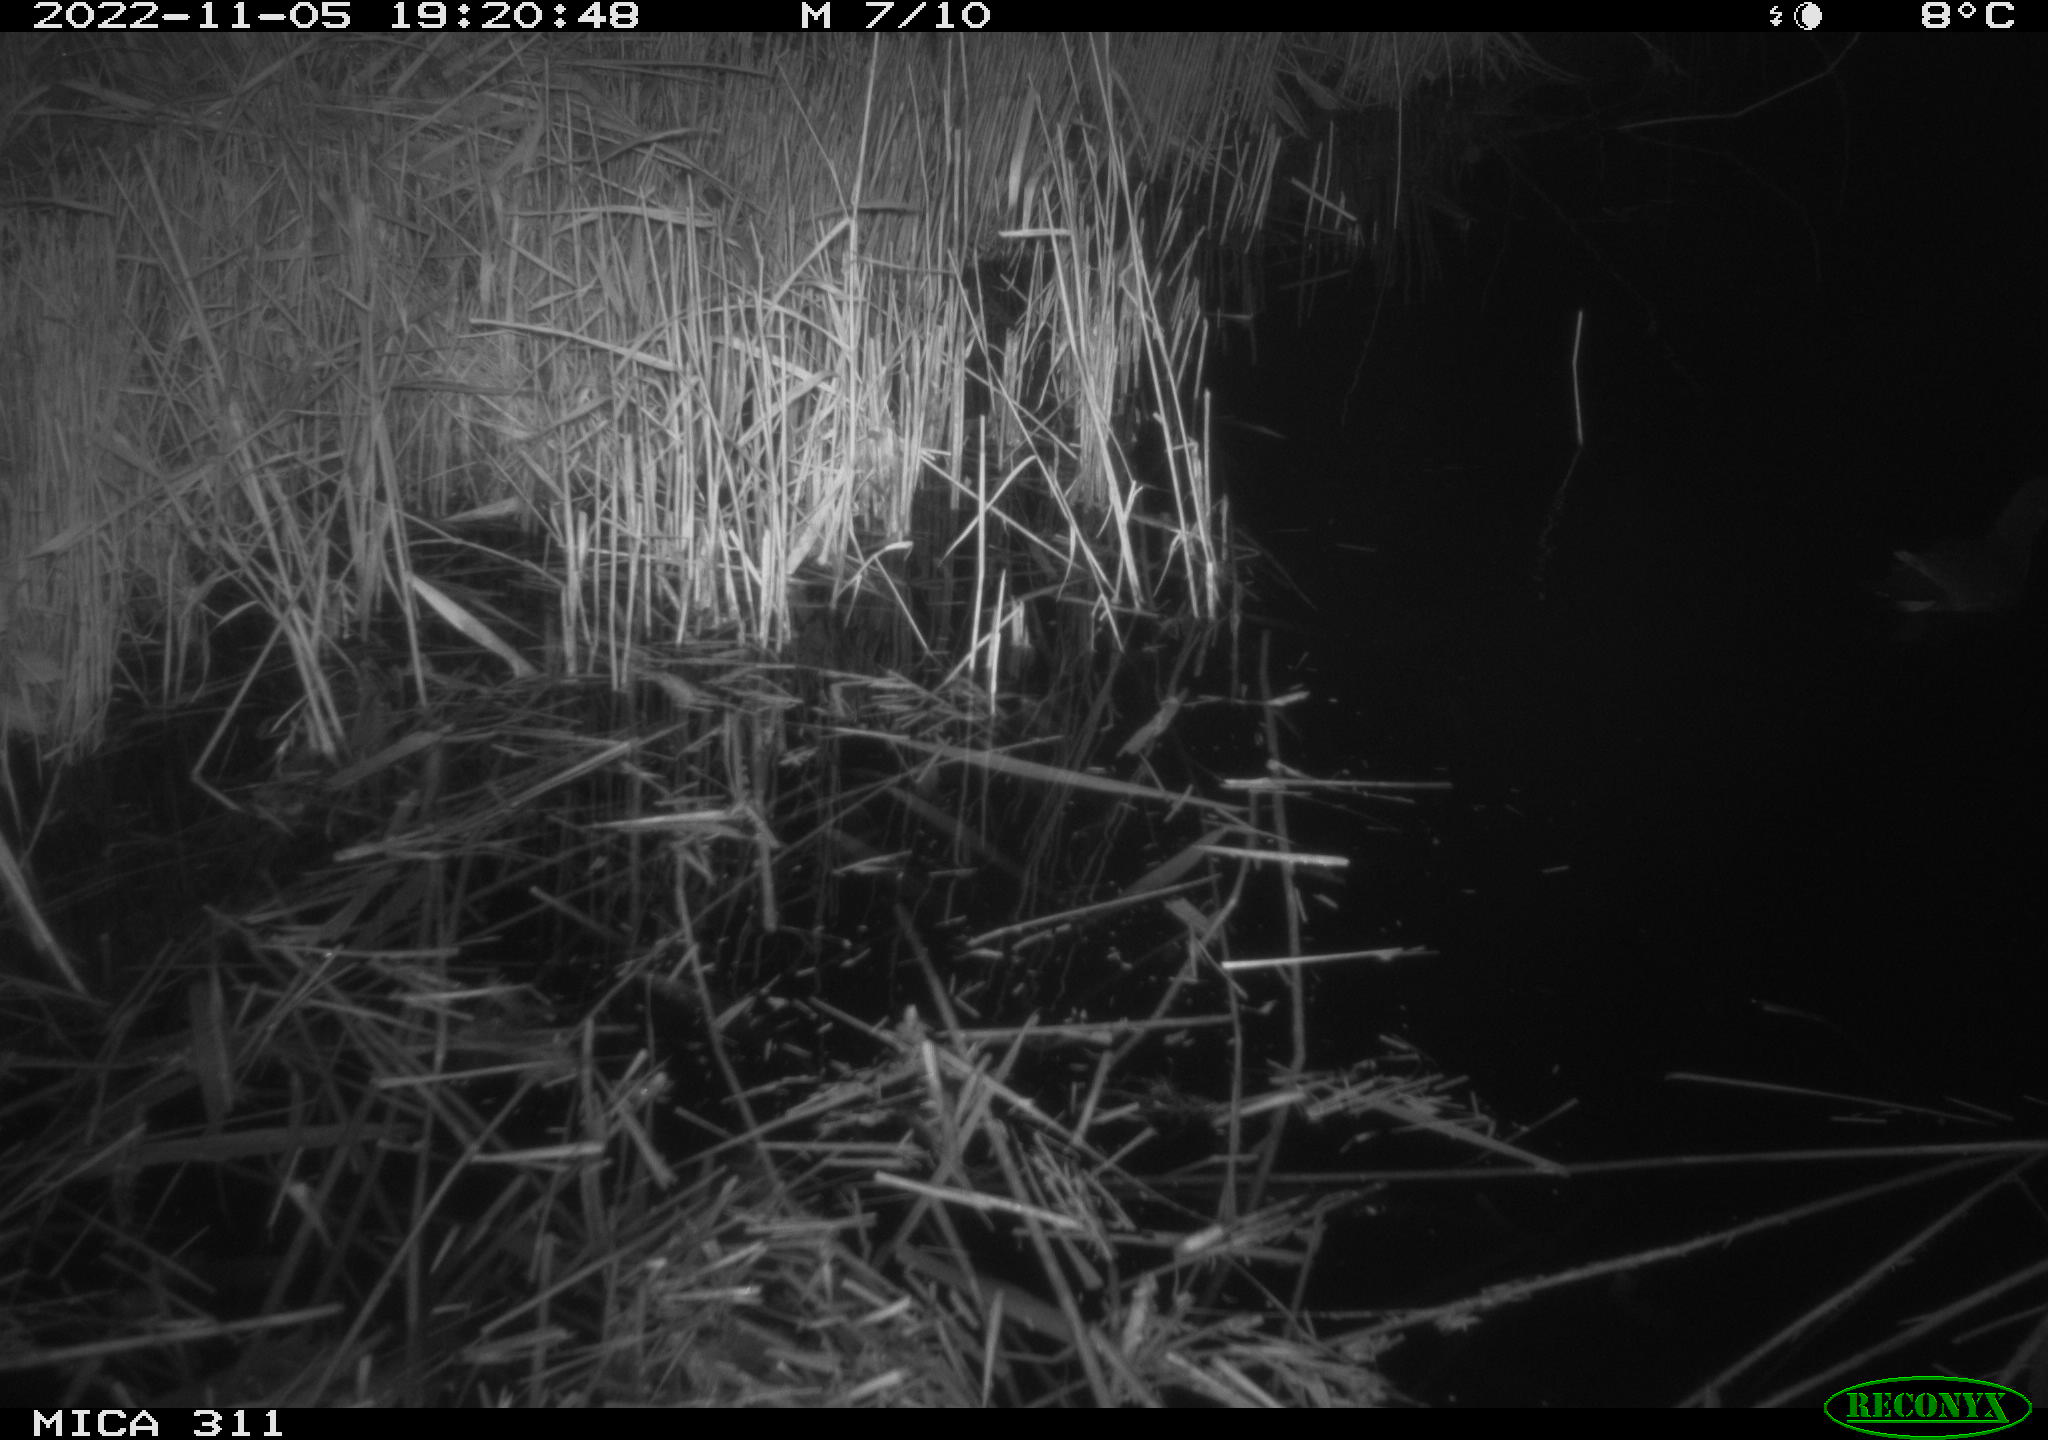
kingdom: Animalia
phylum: Chordata
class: Aves
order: Gruiformes
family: Rallidae
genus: Gallinula
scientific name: Gallinula chloropus
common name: Common moorhen
